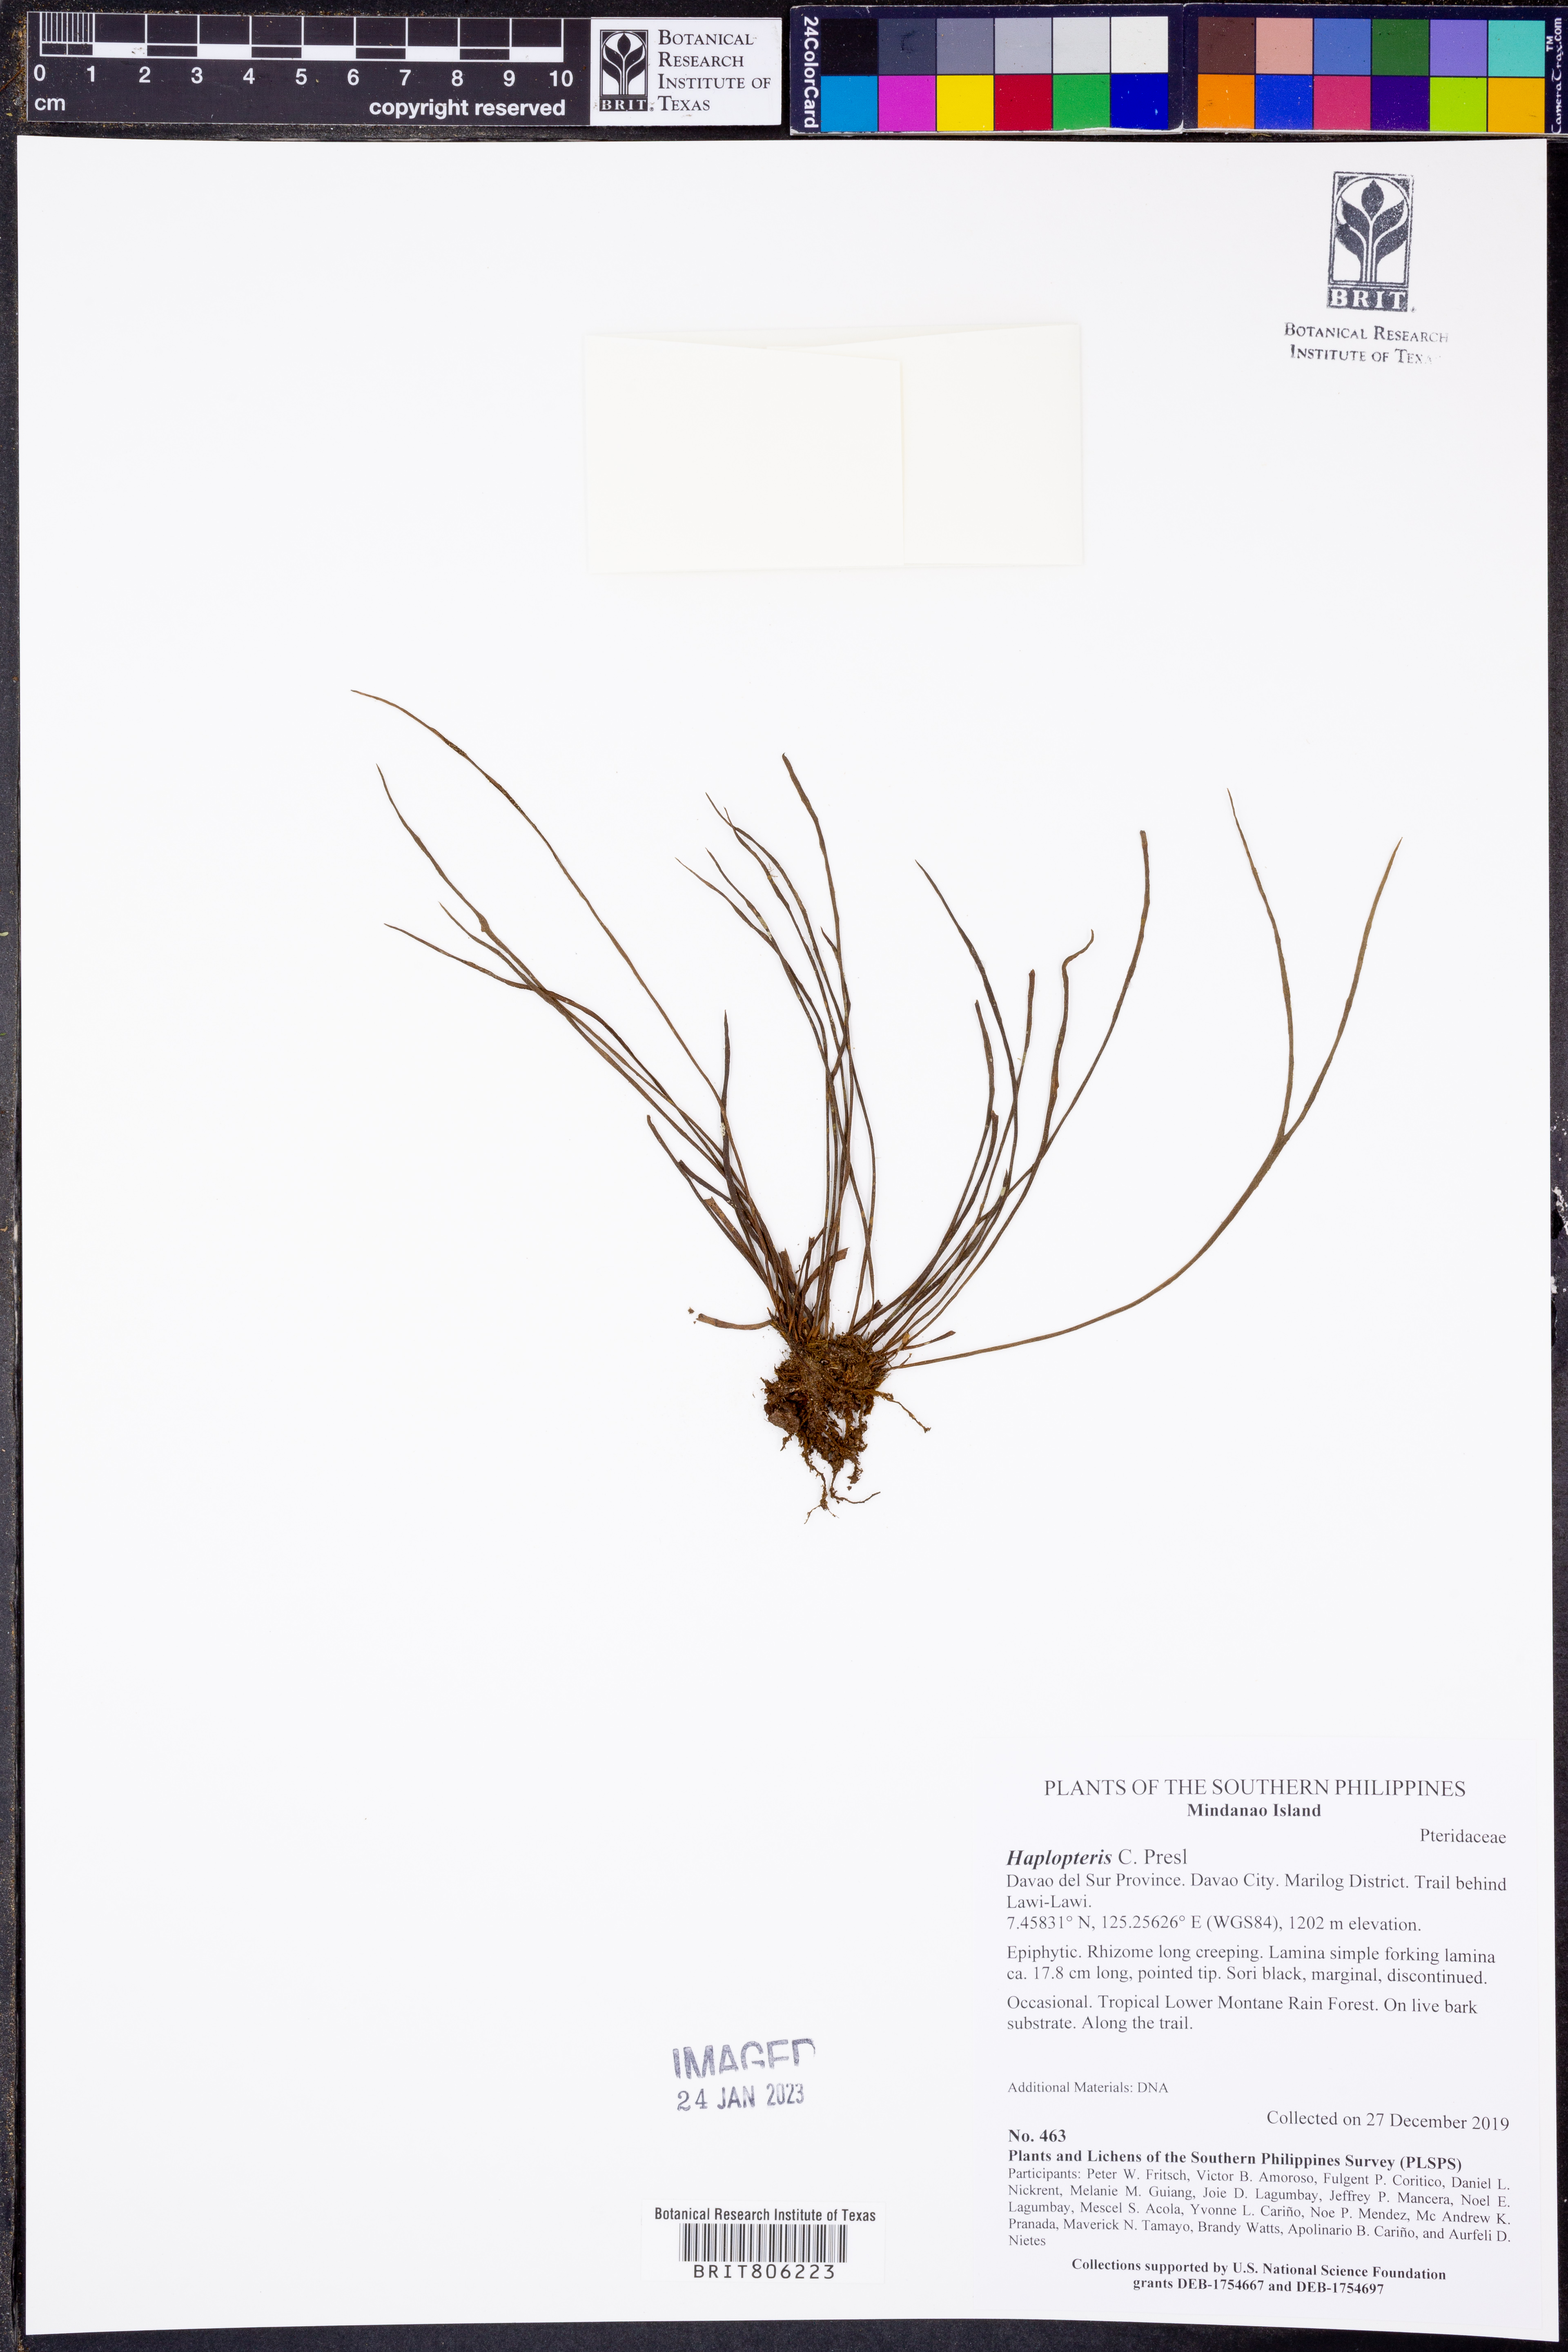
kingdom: Plantae
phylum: Tracheophyta
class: Polypodiopsida
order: Polypodiales
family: Pteridaceae
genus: Haplopteris
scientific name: Haplopteris
